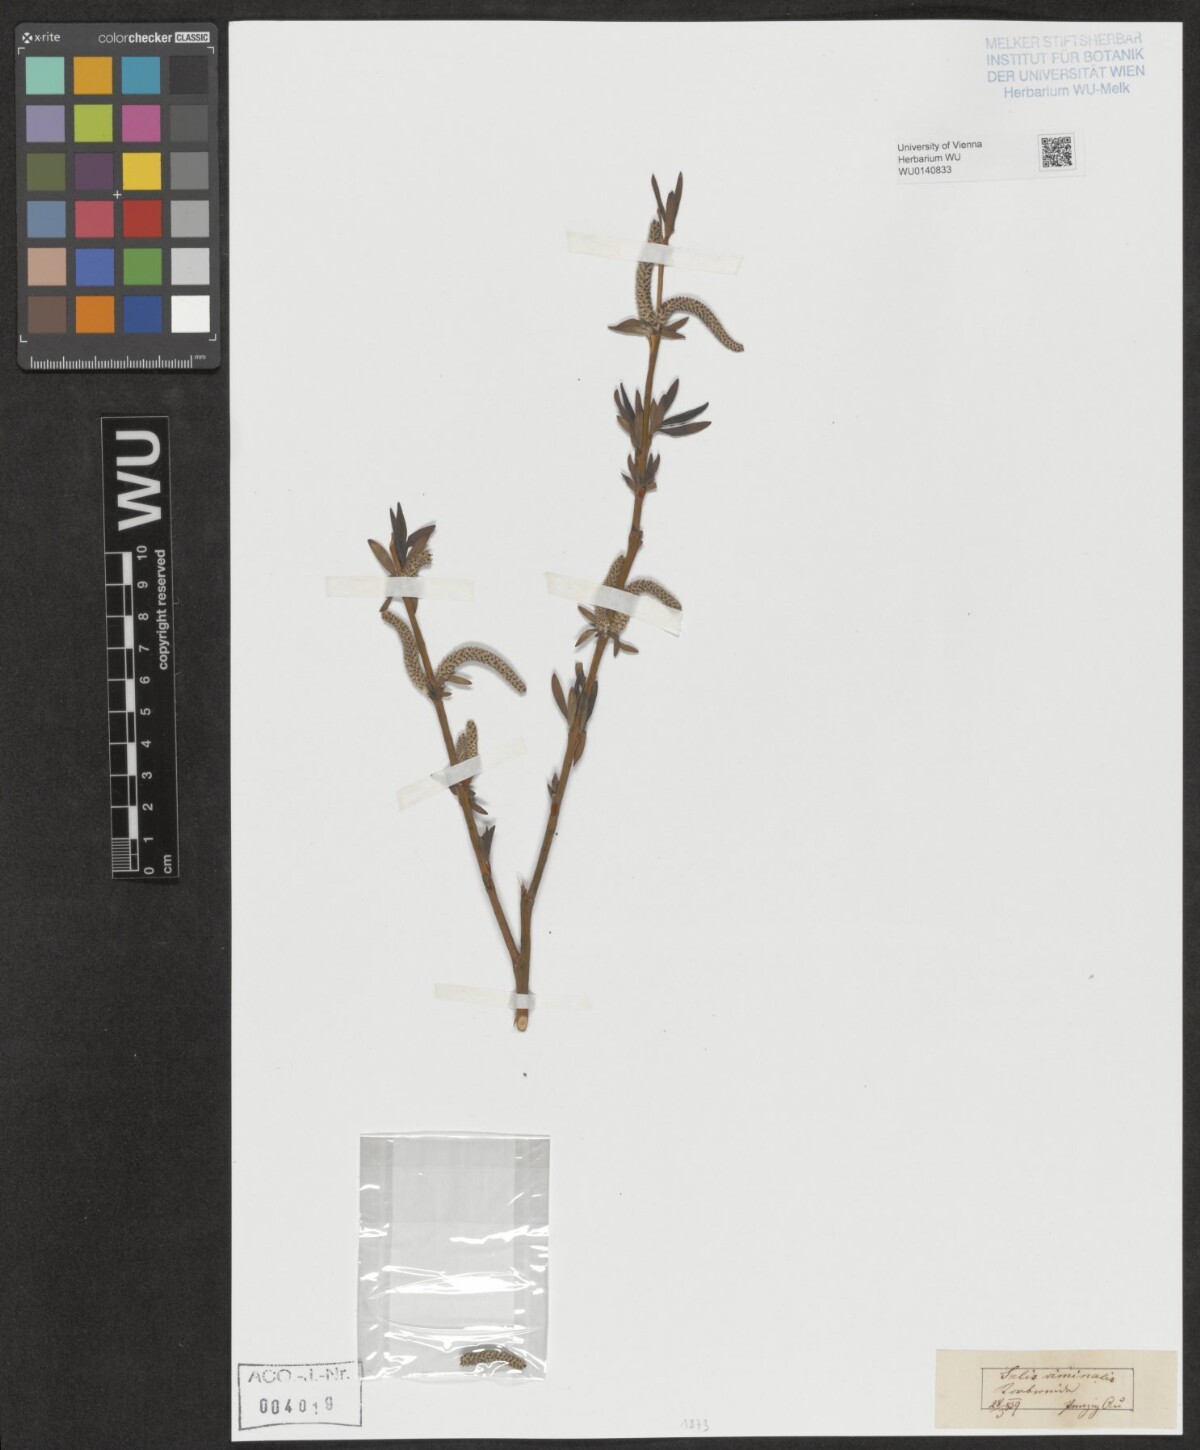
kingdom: Plantae
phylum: Tracheophyta
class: Magnoliopsida
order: Malpighiales
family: Salicaceae
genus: Salix
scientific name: Salix viminalis
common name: Osier
